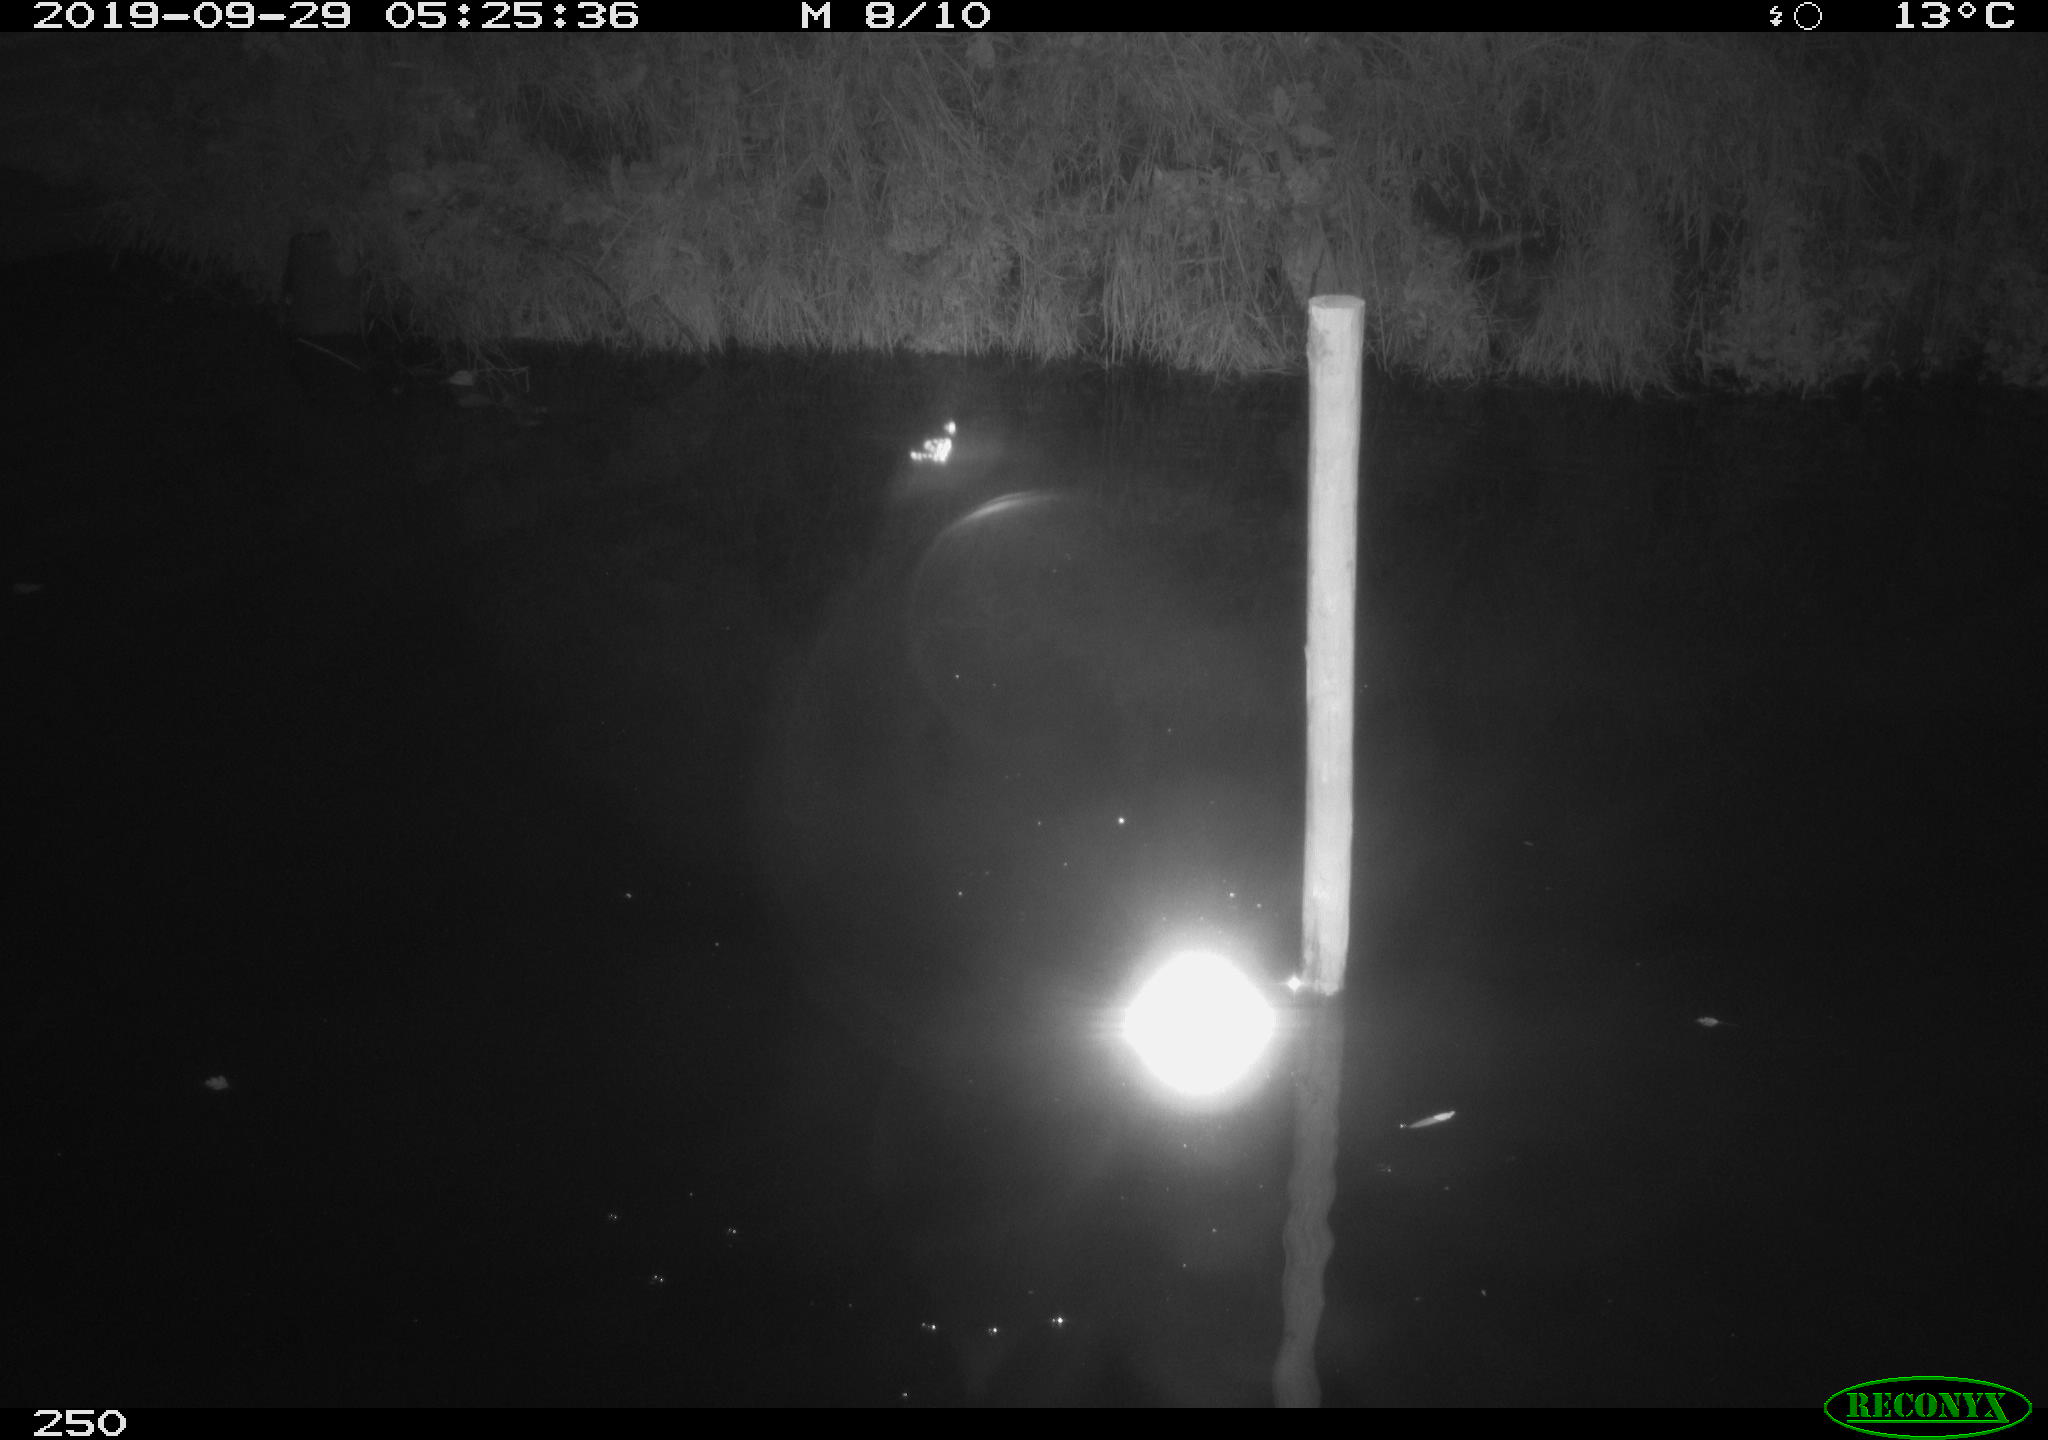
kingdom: Animalia
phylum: Chordata
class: Aves
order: Anseriformes
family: Anatidae
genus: Anas
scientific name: Anas platyrhynchos
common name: Mallard
